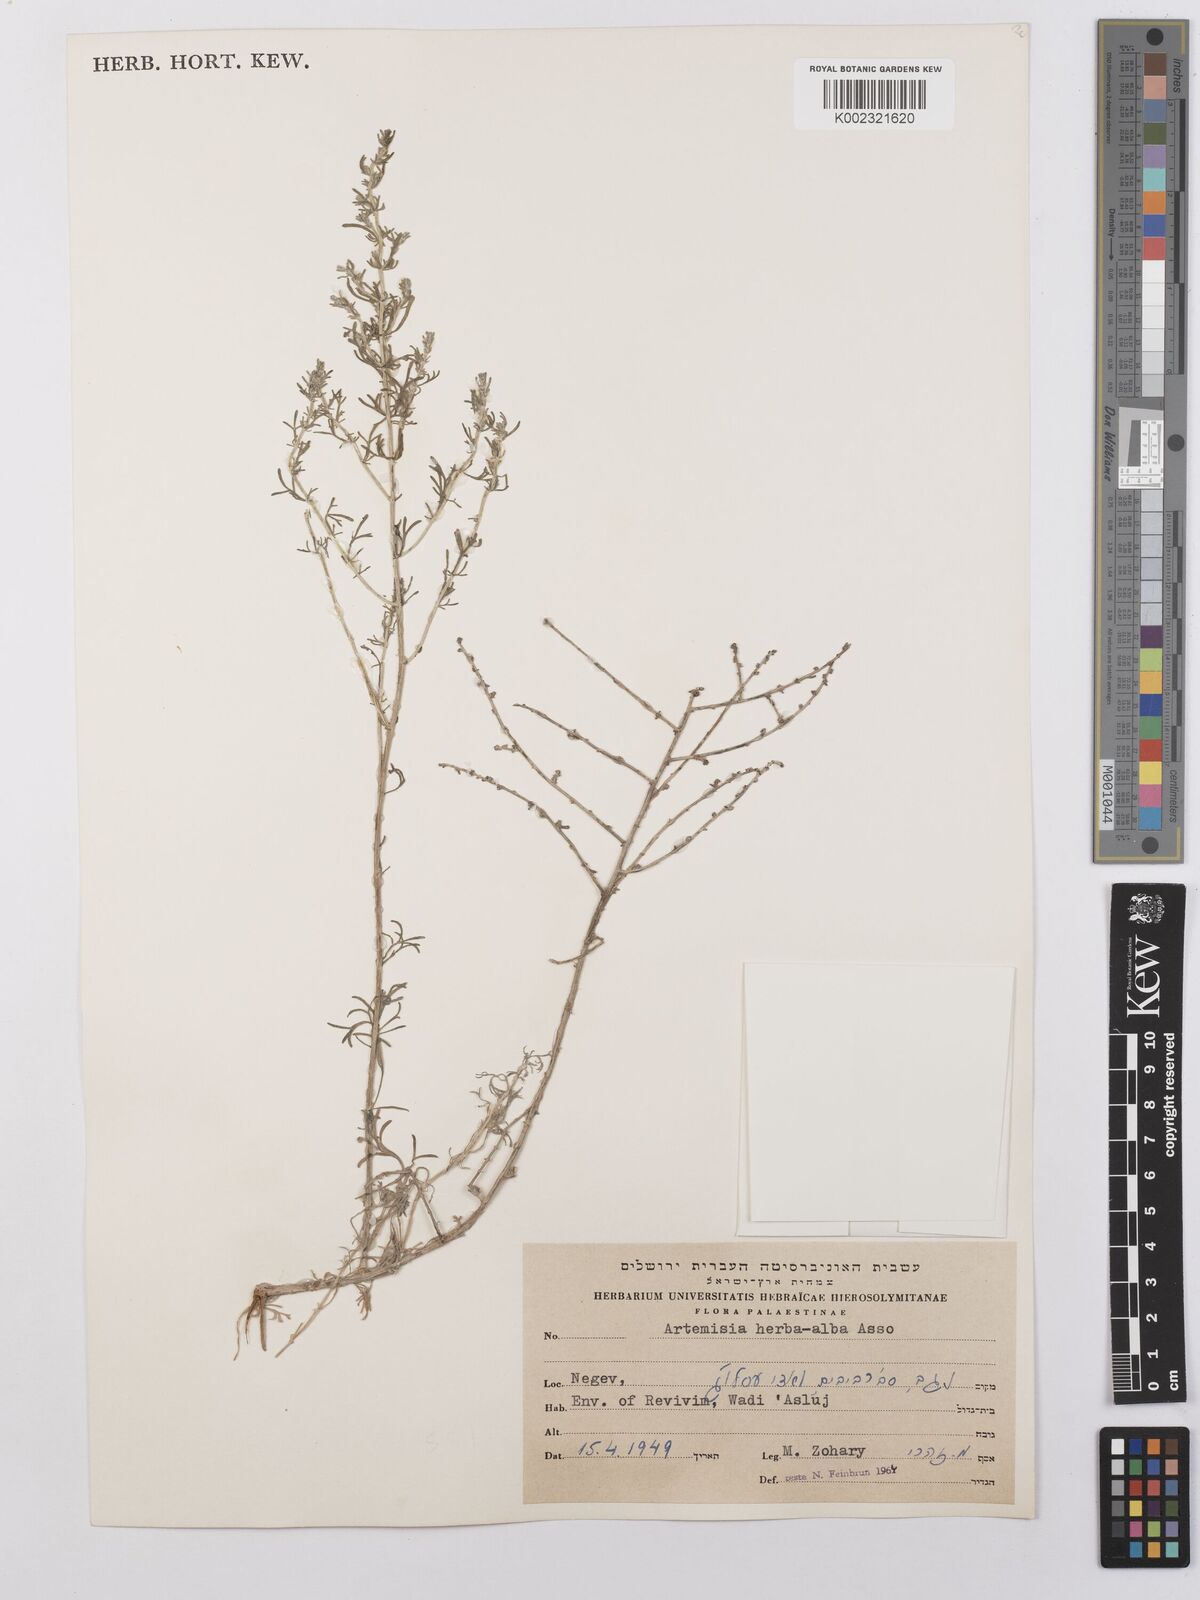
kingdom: Plantae
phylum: Tracheophyta
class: Magnoliopsida
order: Asterales
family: Asteraceae
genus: Artemisia
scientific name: Artemisia herba-alba
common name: White wormwood
